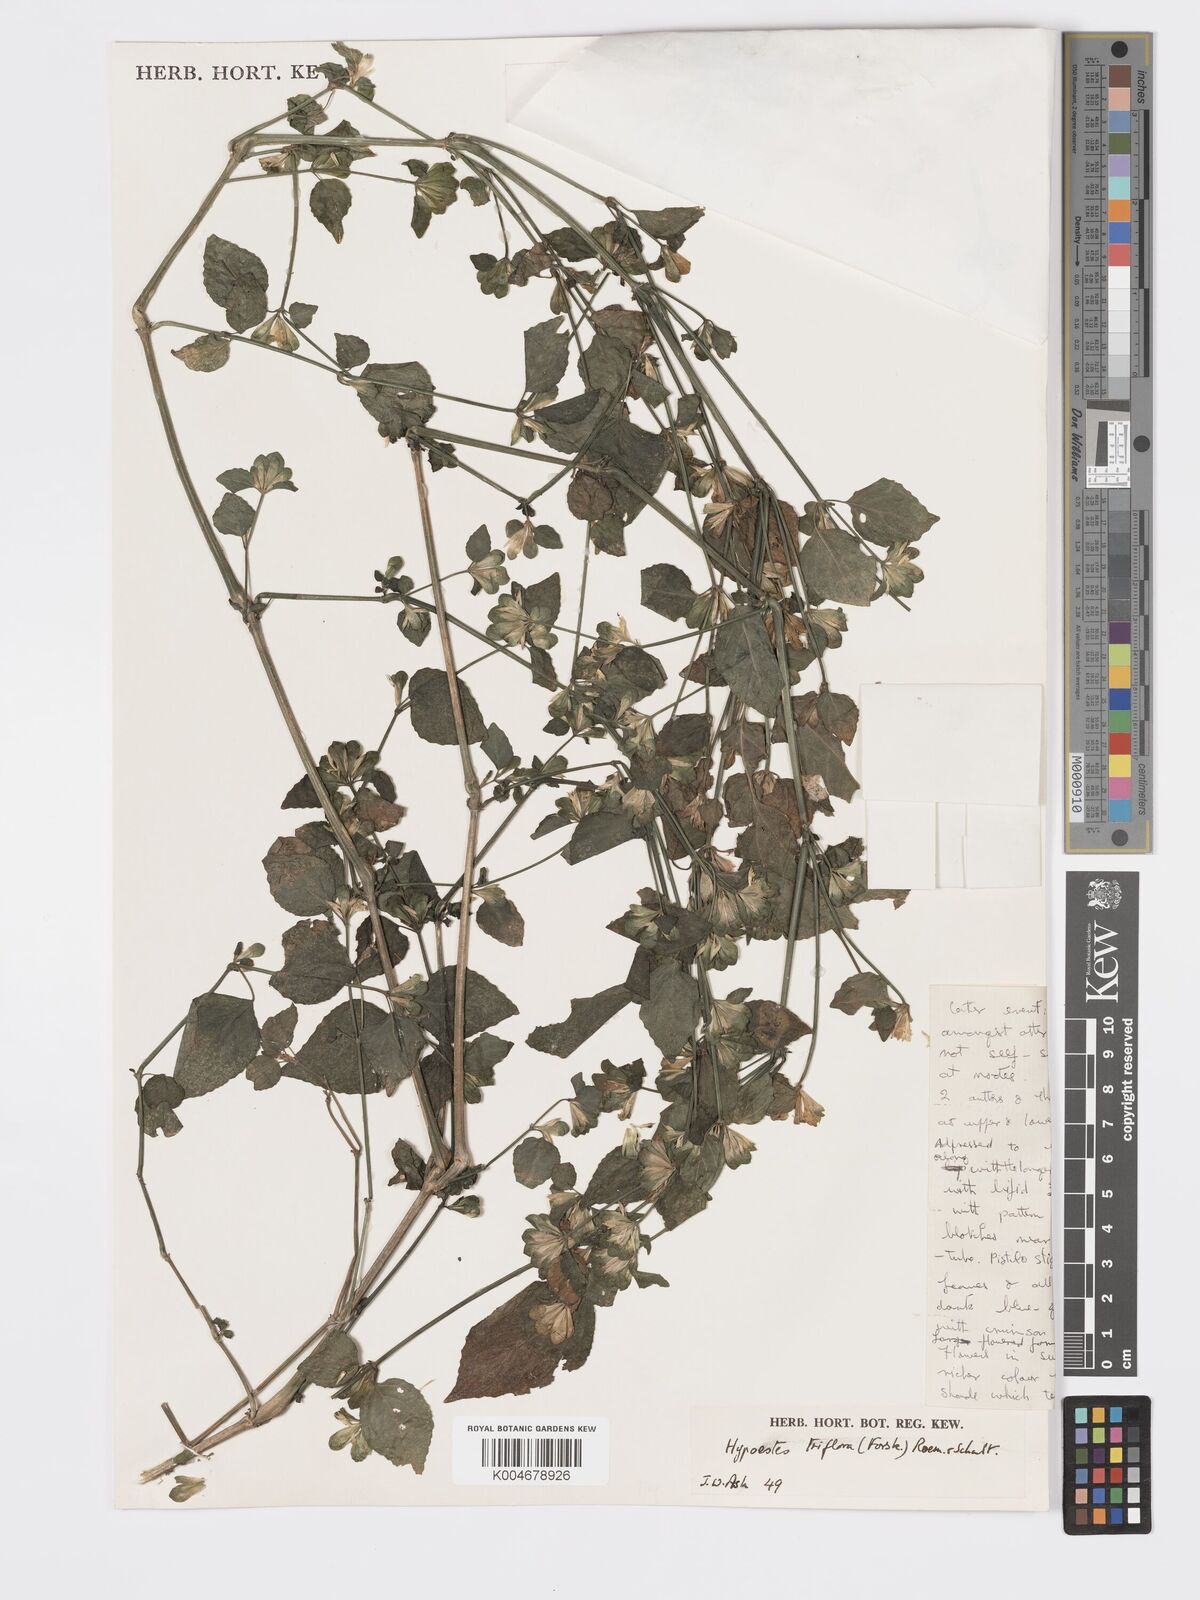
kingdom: Plantae
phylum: Tracheophyta
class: Magnoliopsida
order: Lamiales
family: Acanthaceae
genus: Hypoestes
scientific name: Hypoestes triflora
